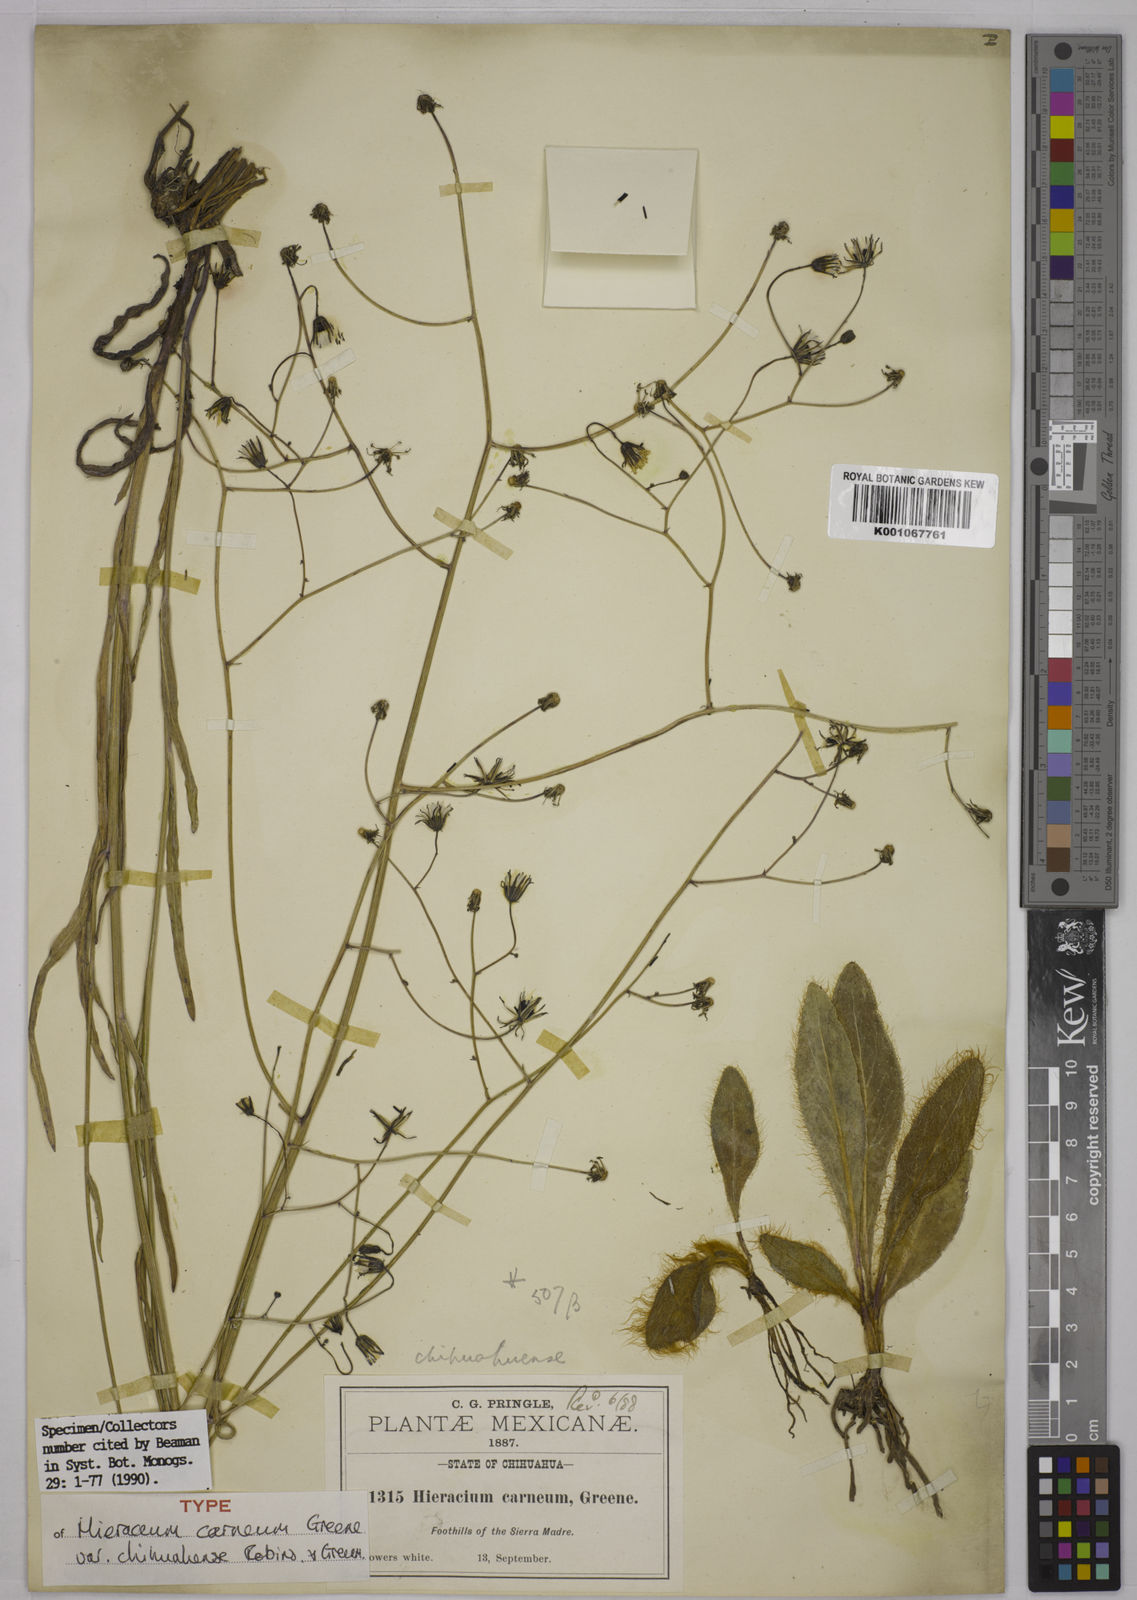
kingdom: Plantae
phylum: Tracheophyta
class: Magnoliopsida
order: Asterales
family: Asteraceae
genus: Hieracium
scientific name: Hieracium carneum
